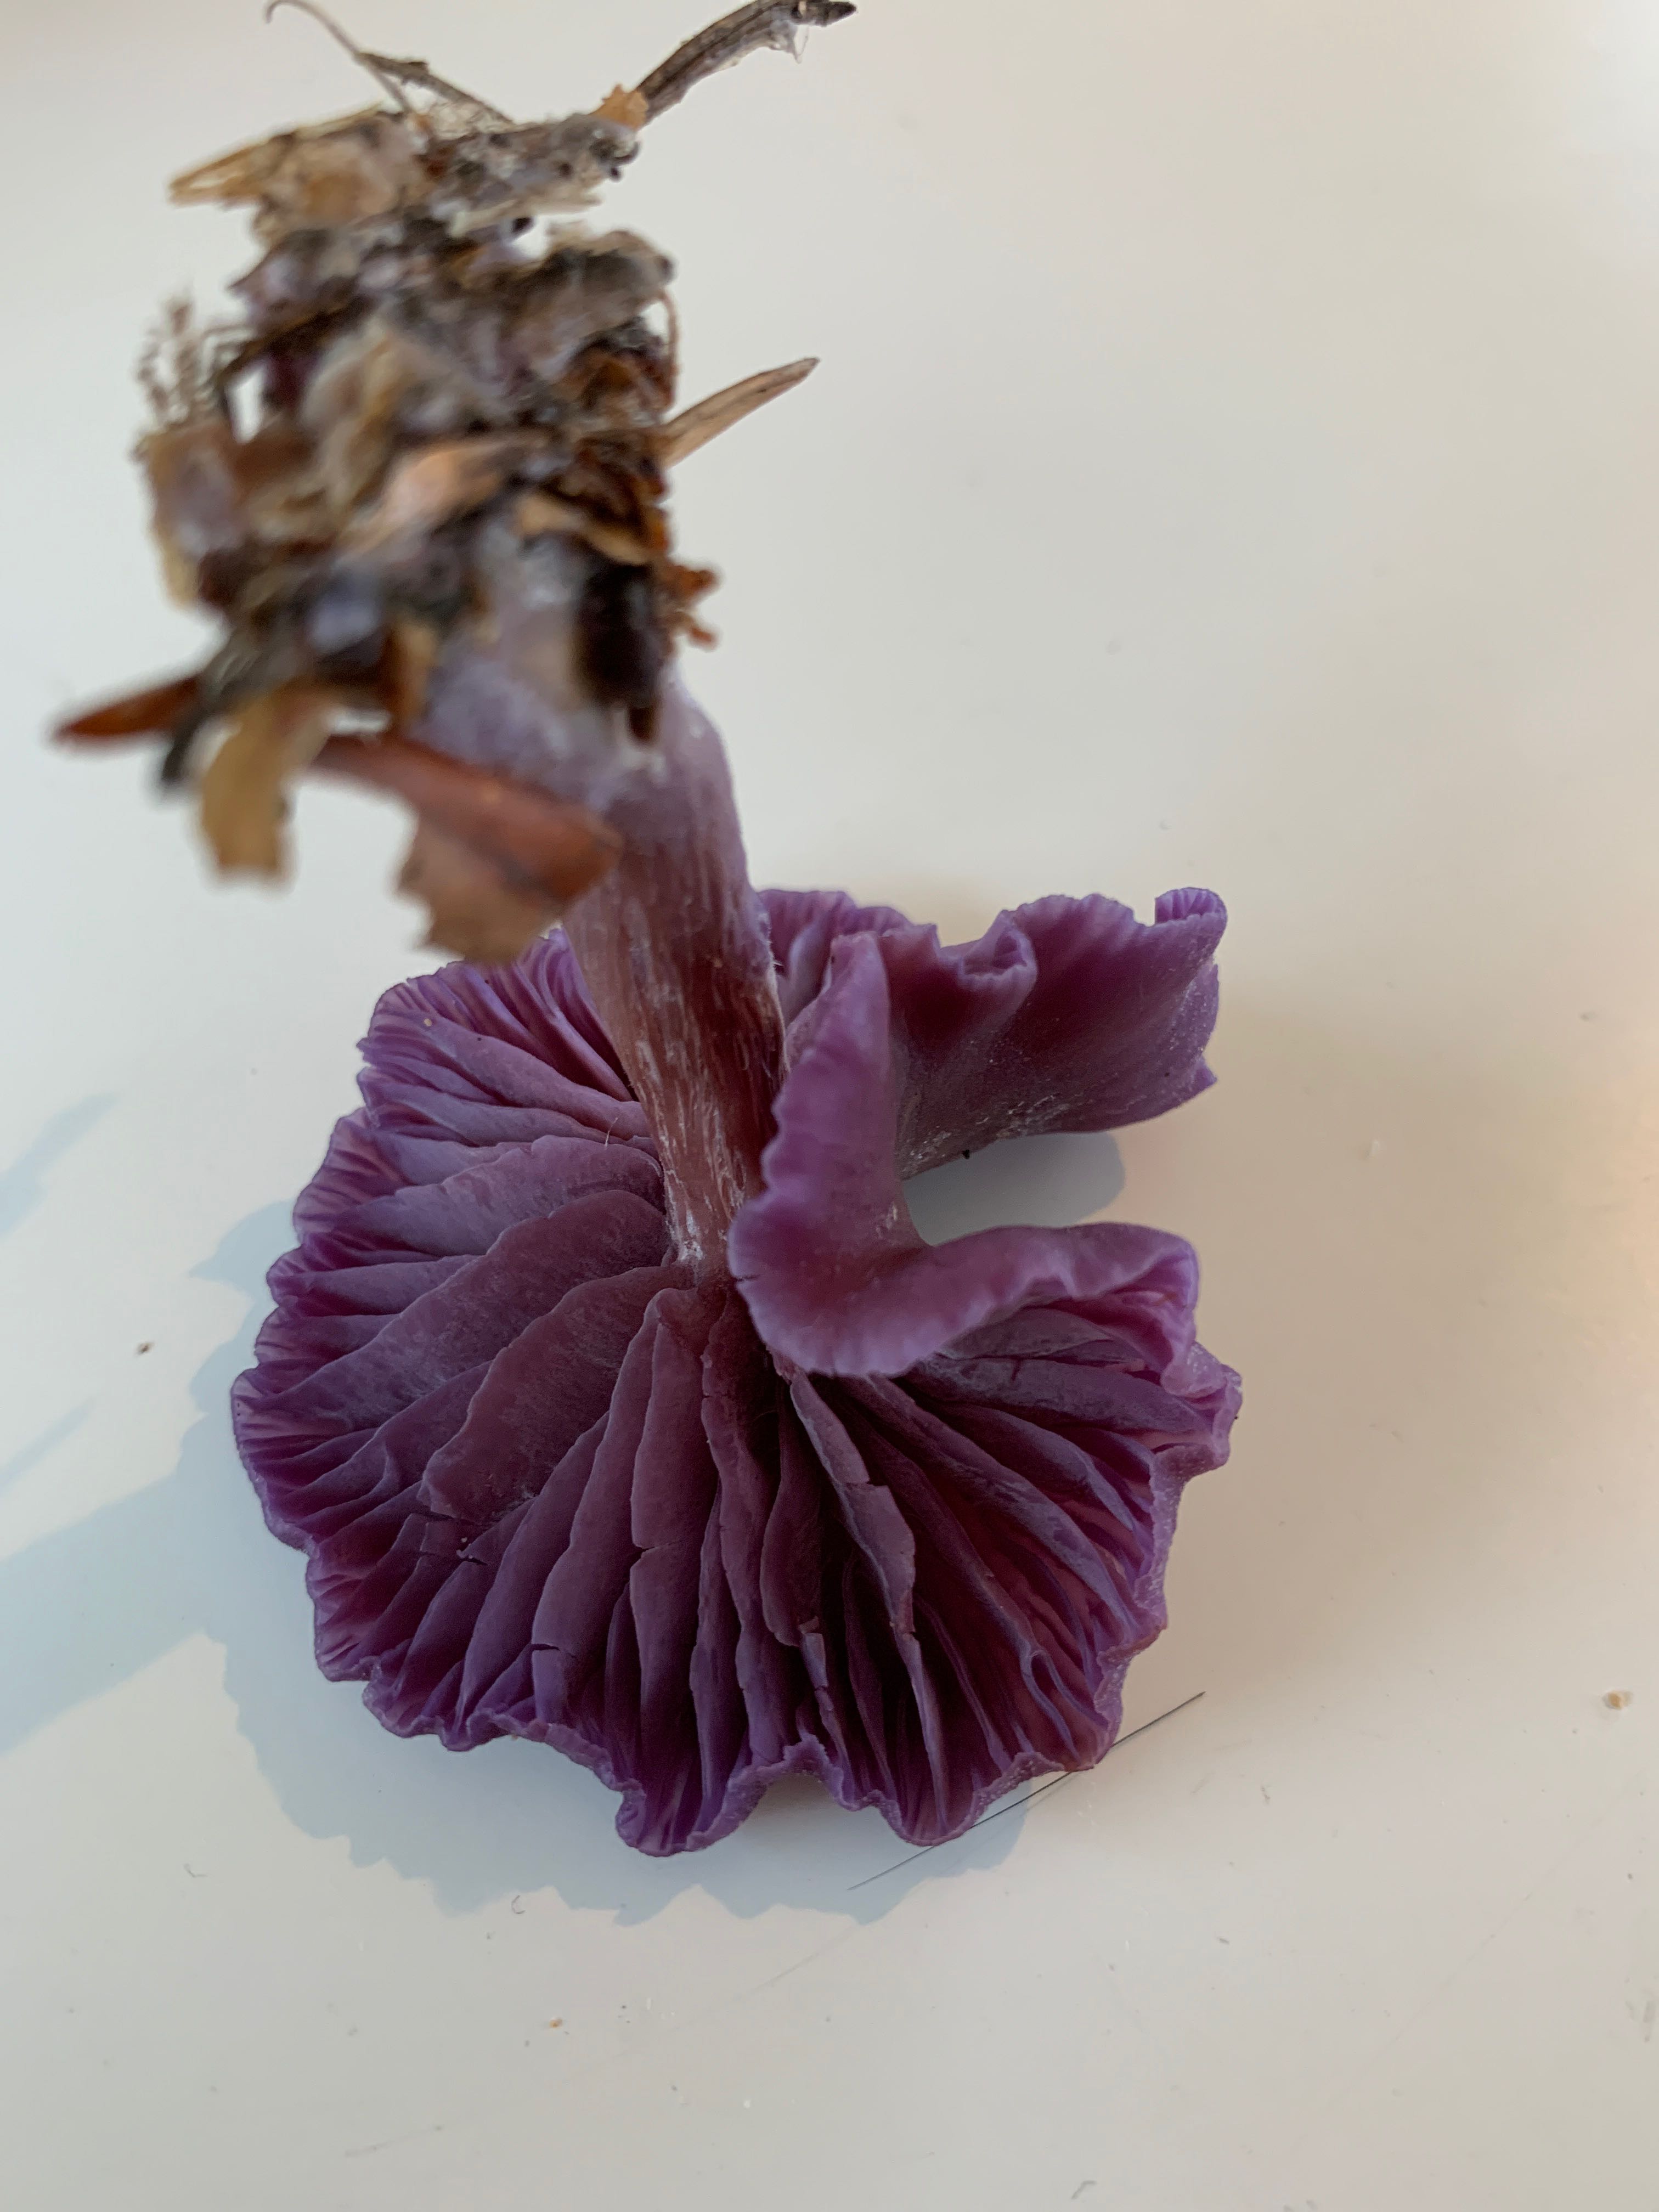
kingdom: Fungi
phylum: Basidiomycota
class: Agaricomycetes
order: Agaricales
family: Hydnangiaceae
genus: Laccaria
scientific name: Laccaria amethystina
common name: violet ametysthat
